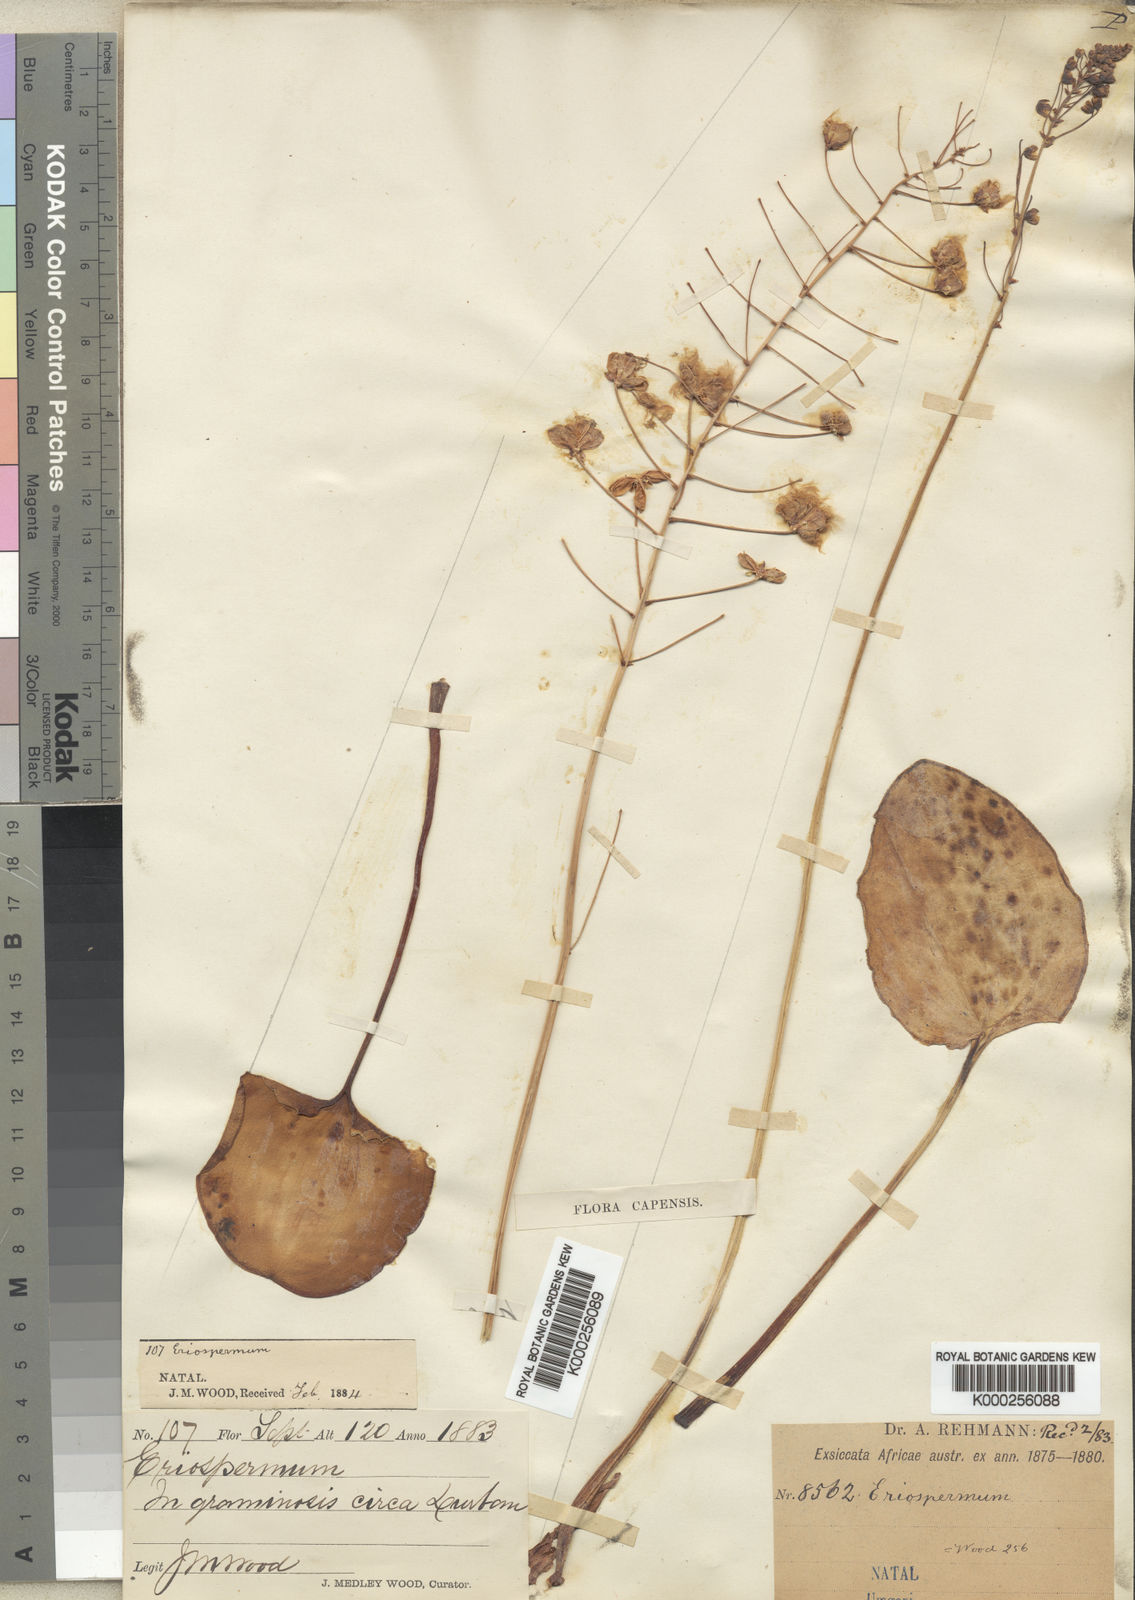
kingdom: Plantae
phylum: Tracheophyta
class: Liliopsida
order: Asparagales
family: Asparagaceae
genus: Eriospermum
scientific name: Eriospermum cooperi
